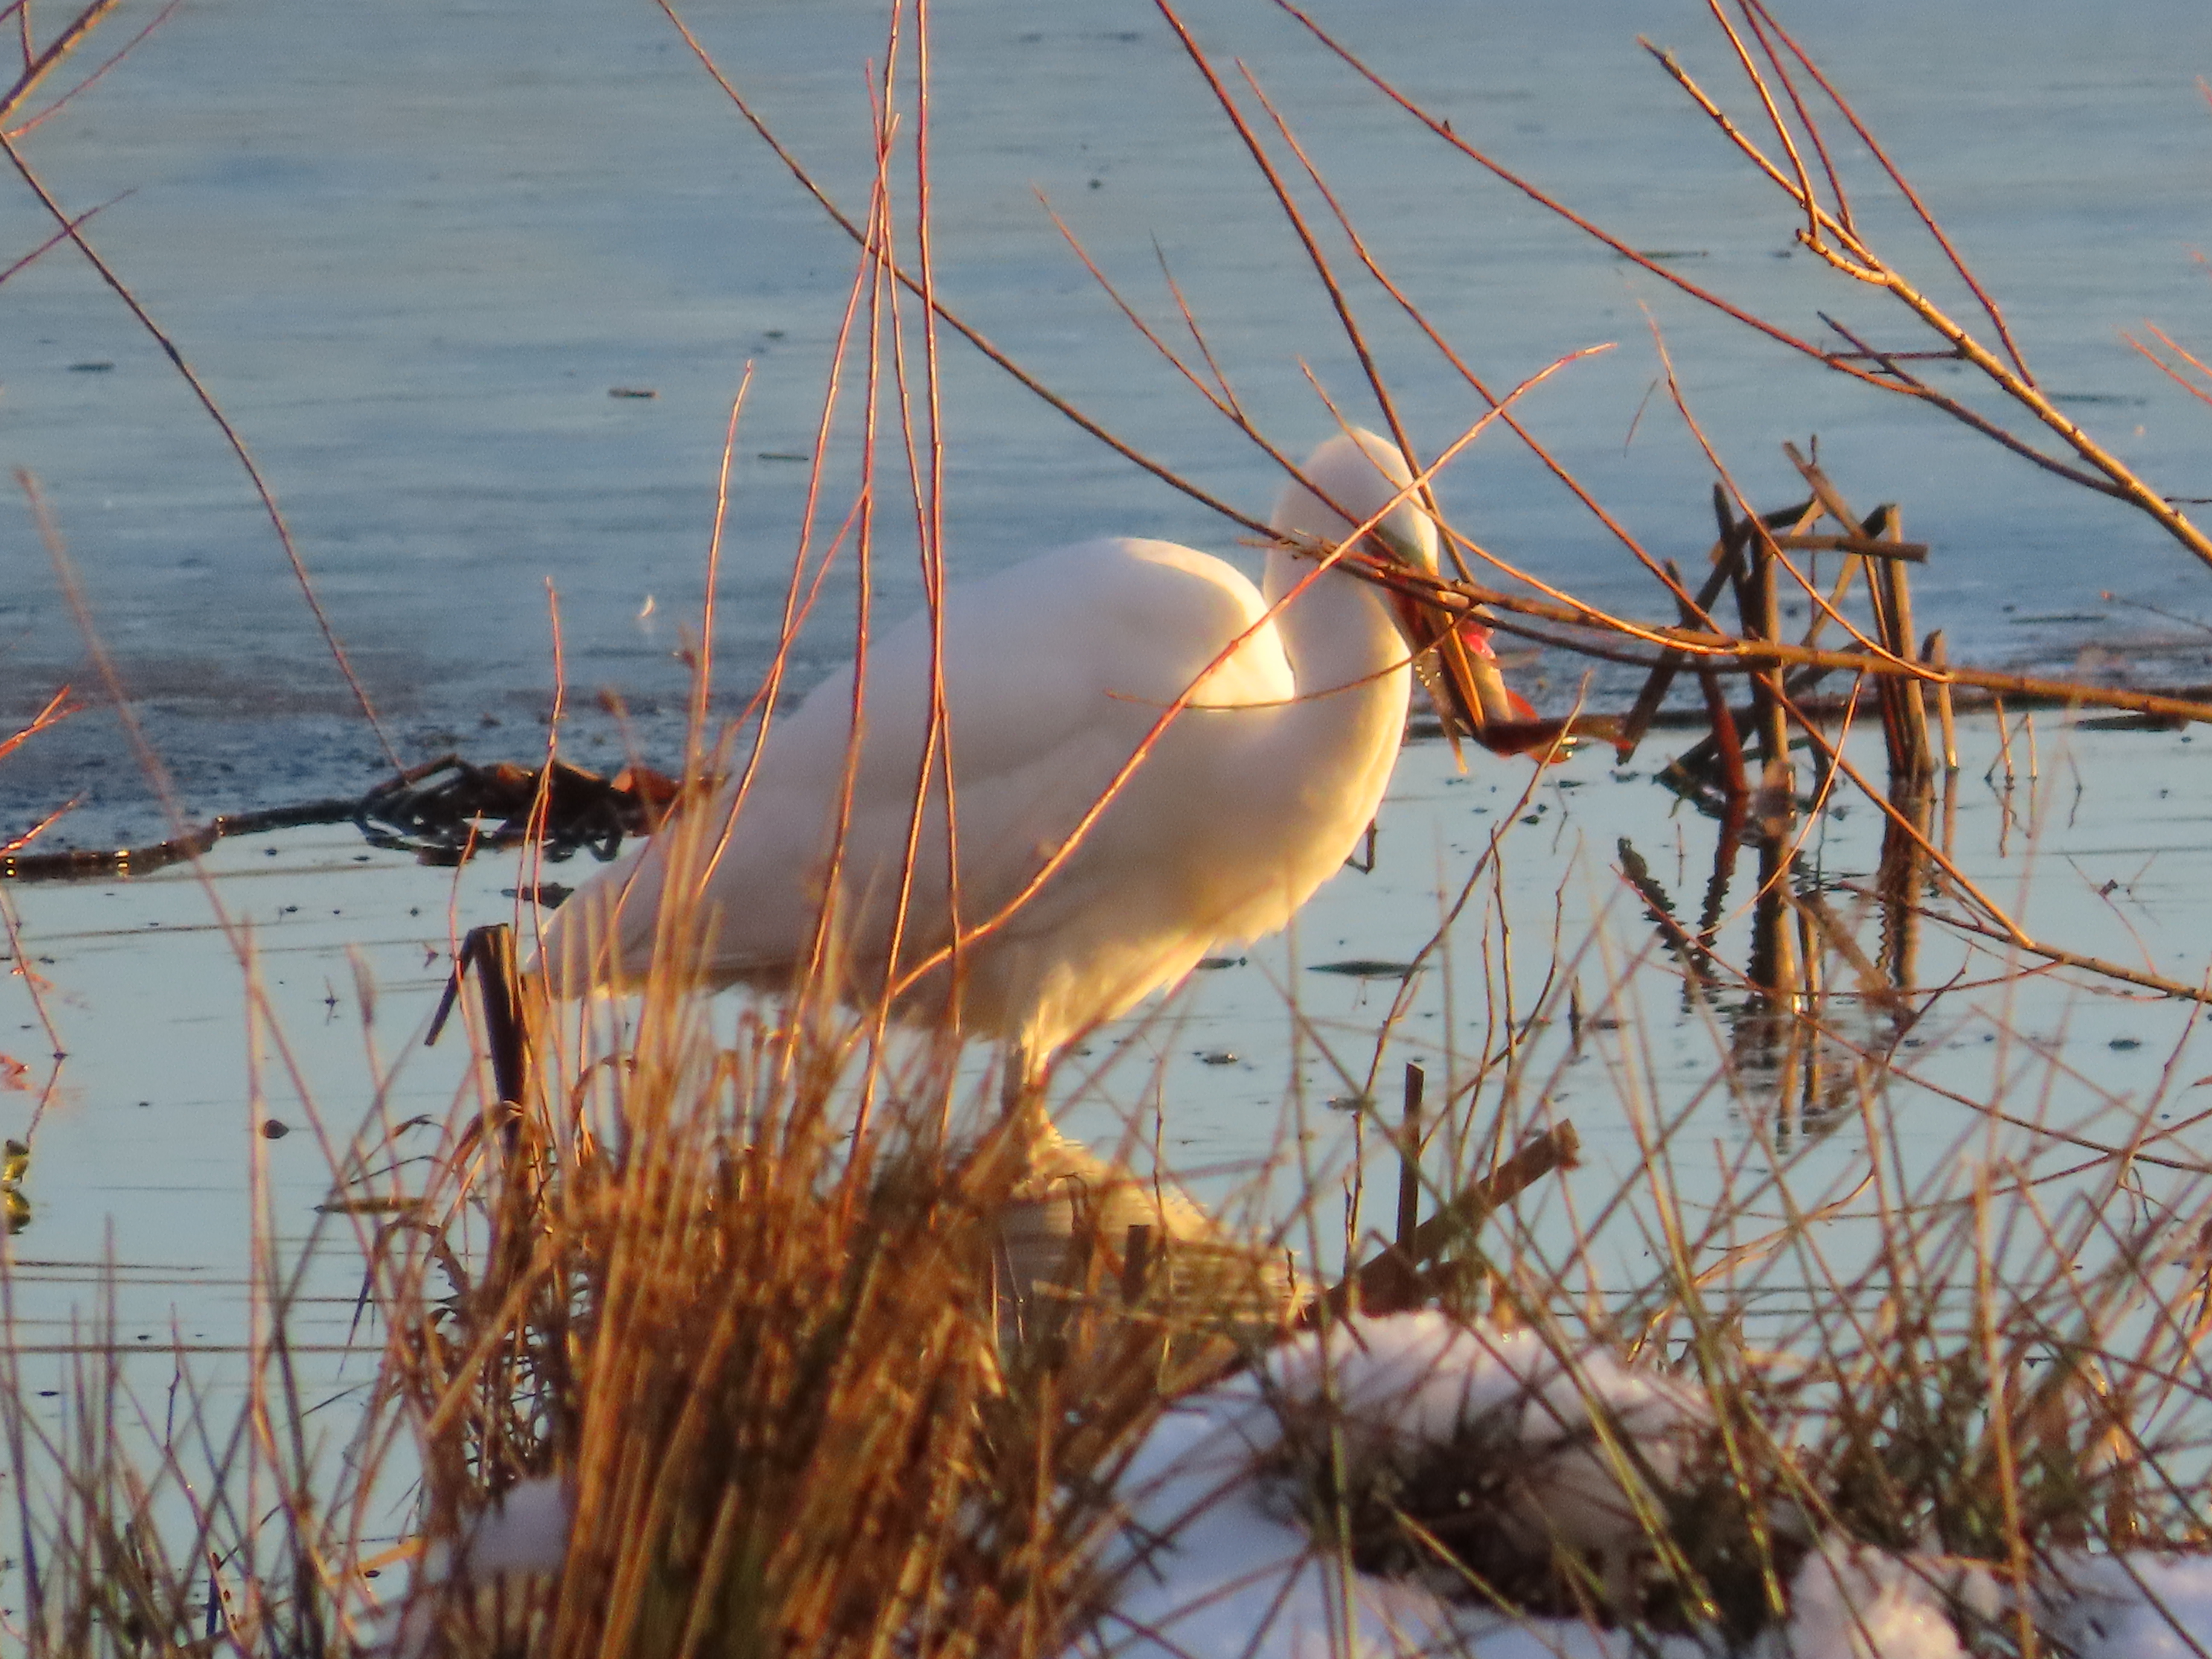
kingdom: Animalia
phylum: Chordata
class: Aves
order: Pelecaniformes
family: Ardeidae
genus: Ardea
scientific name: Ardea alba
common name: Sølvhejre
